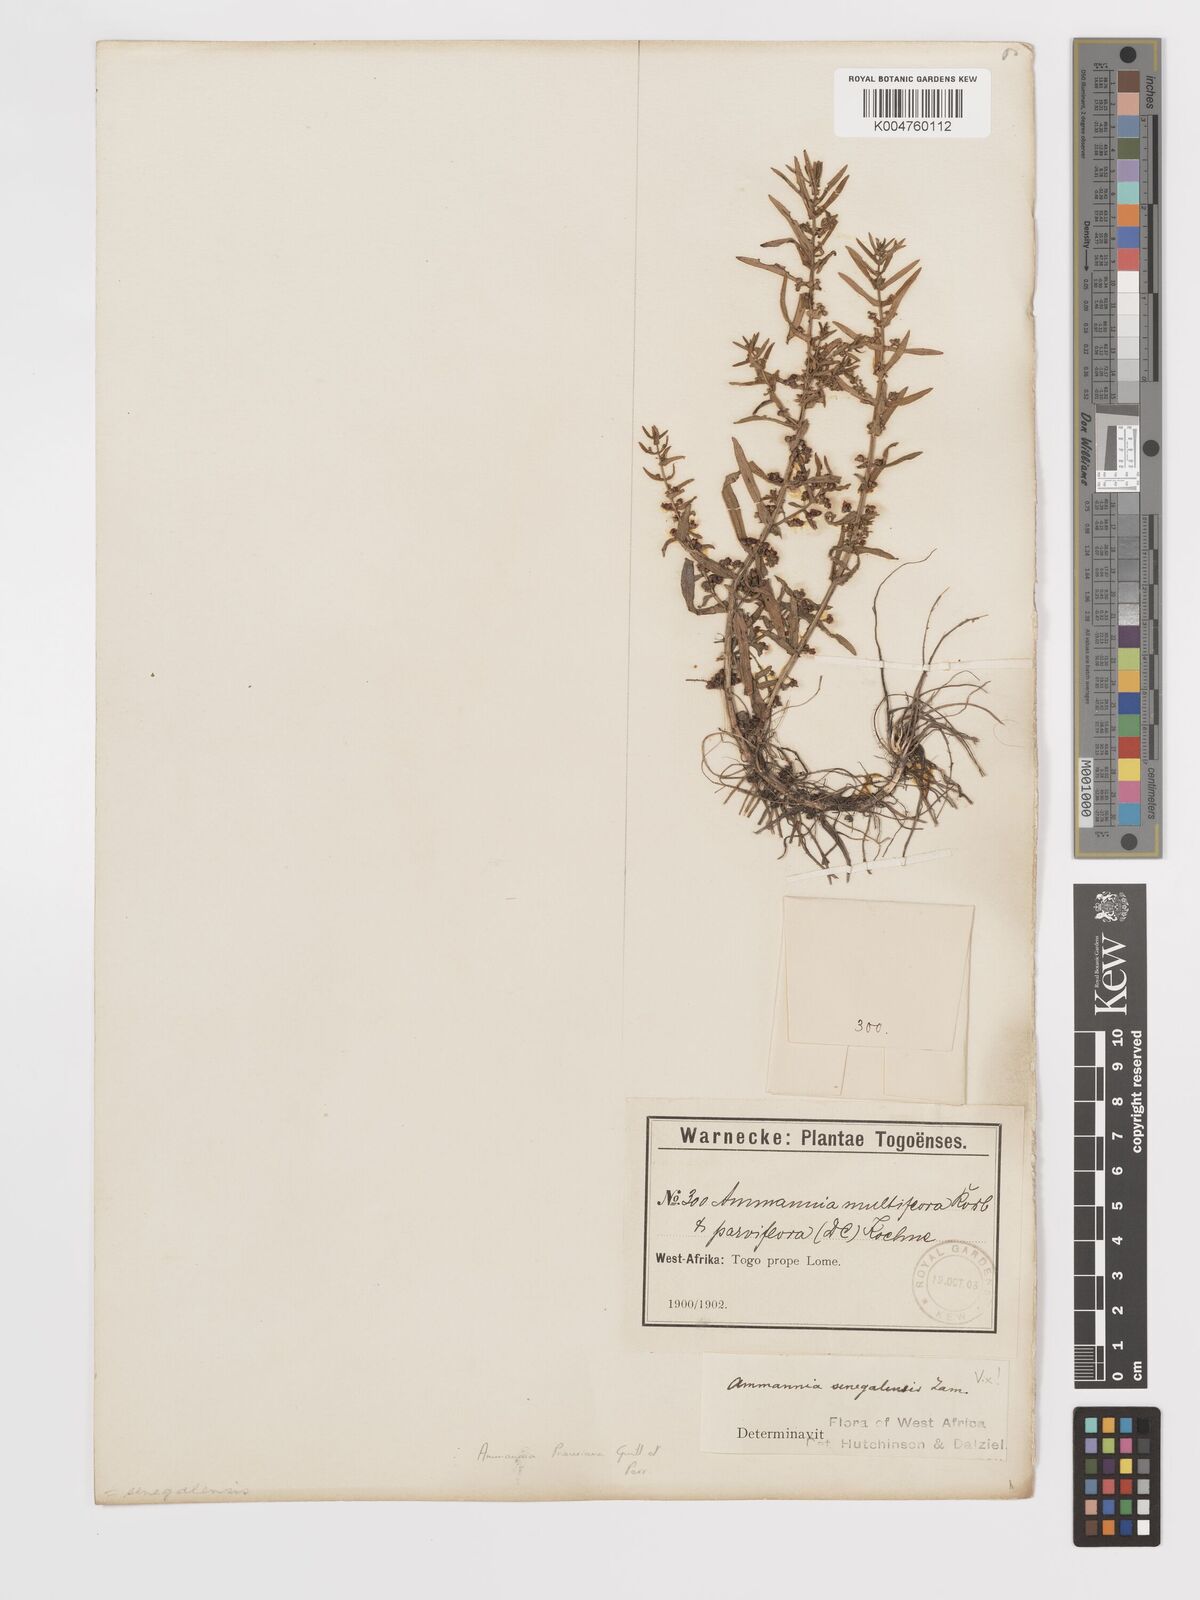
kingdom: Plantae
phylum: Tracheophyta
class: Magnoliopsida
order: Myrtales
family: Lythraceae
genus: Ammannia
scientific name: Ammannia prieuriana
